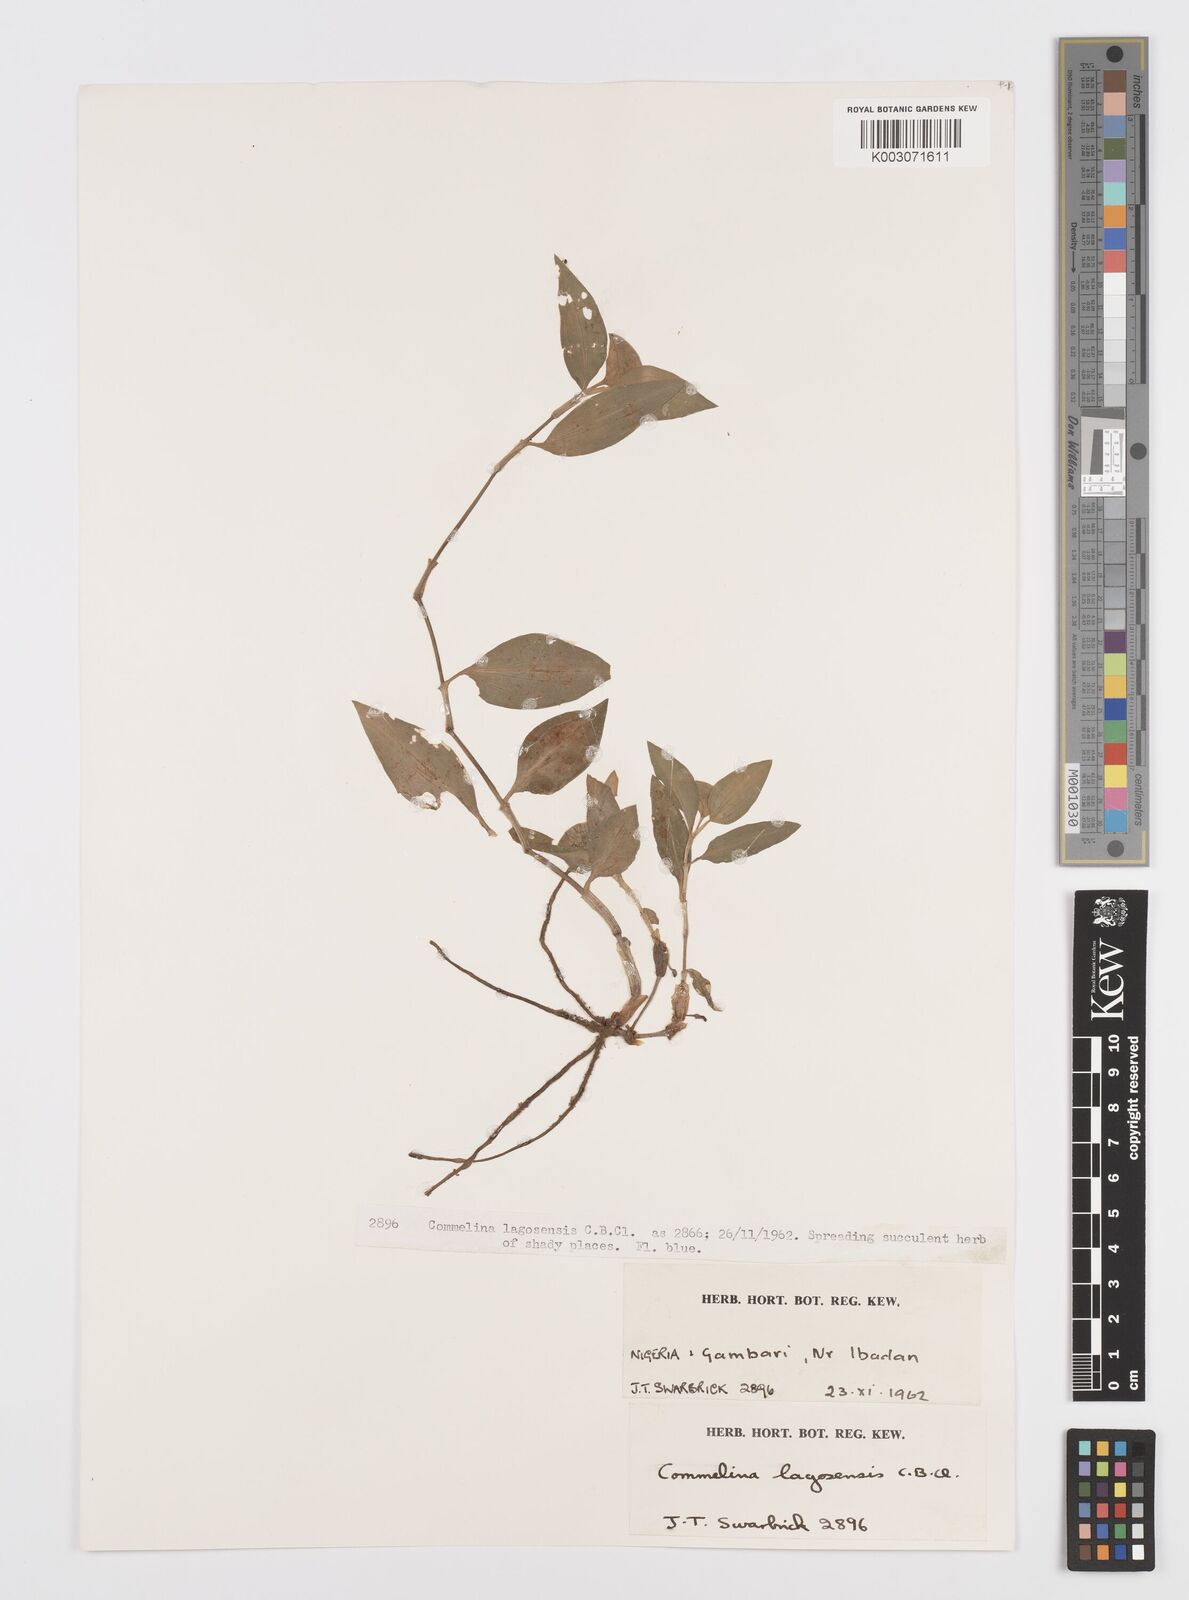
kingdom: Plantae
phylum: Tracheophyta
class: Liliopsida
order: Commelinales
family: Commelinaceae
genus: Commelina
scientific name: Commelina bracteosa
